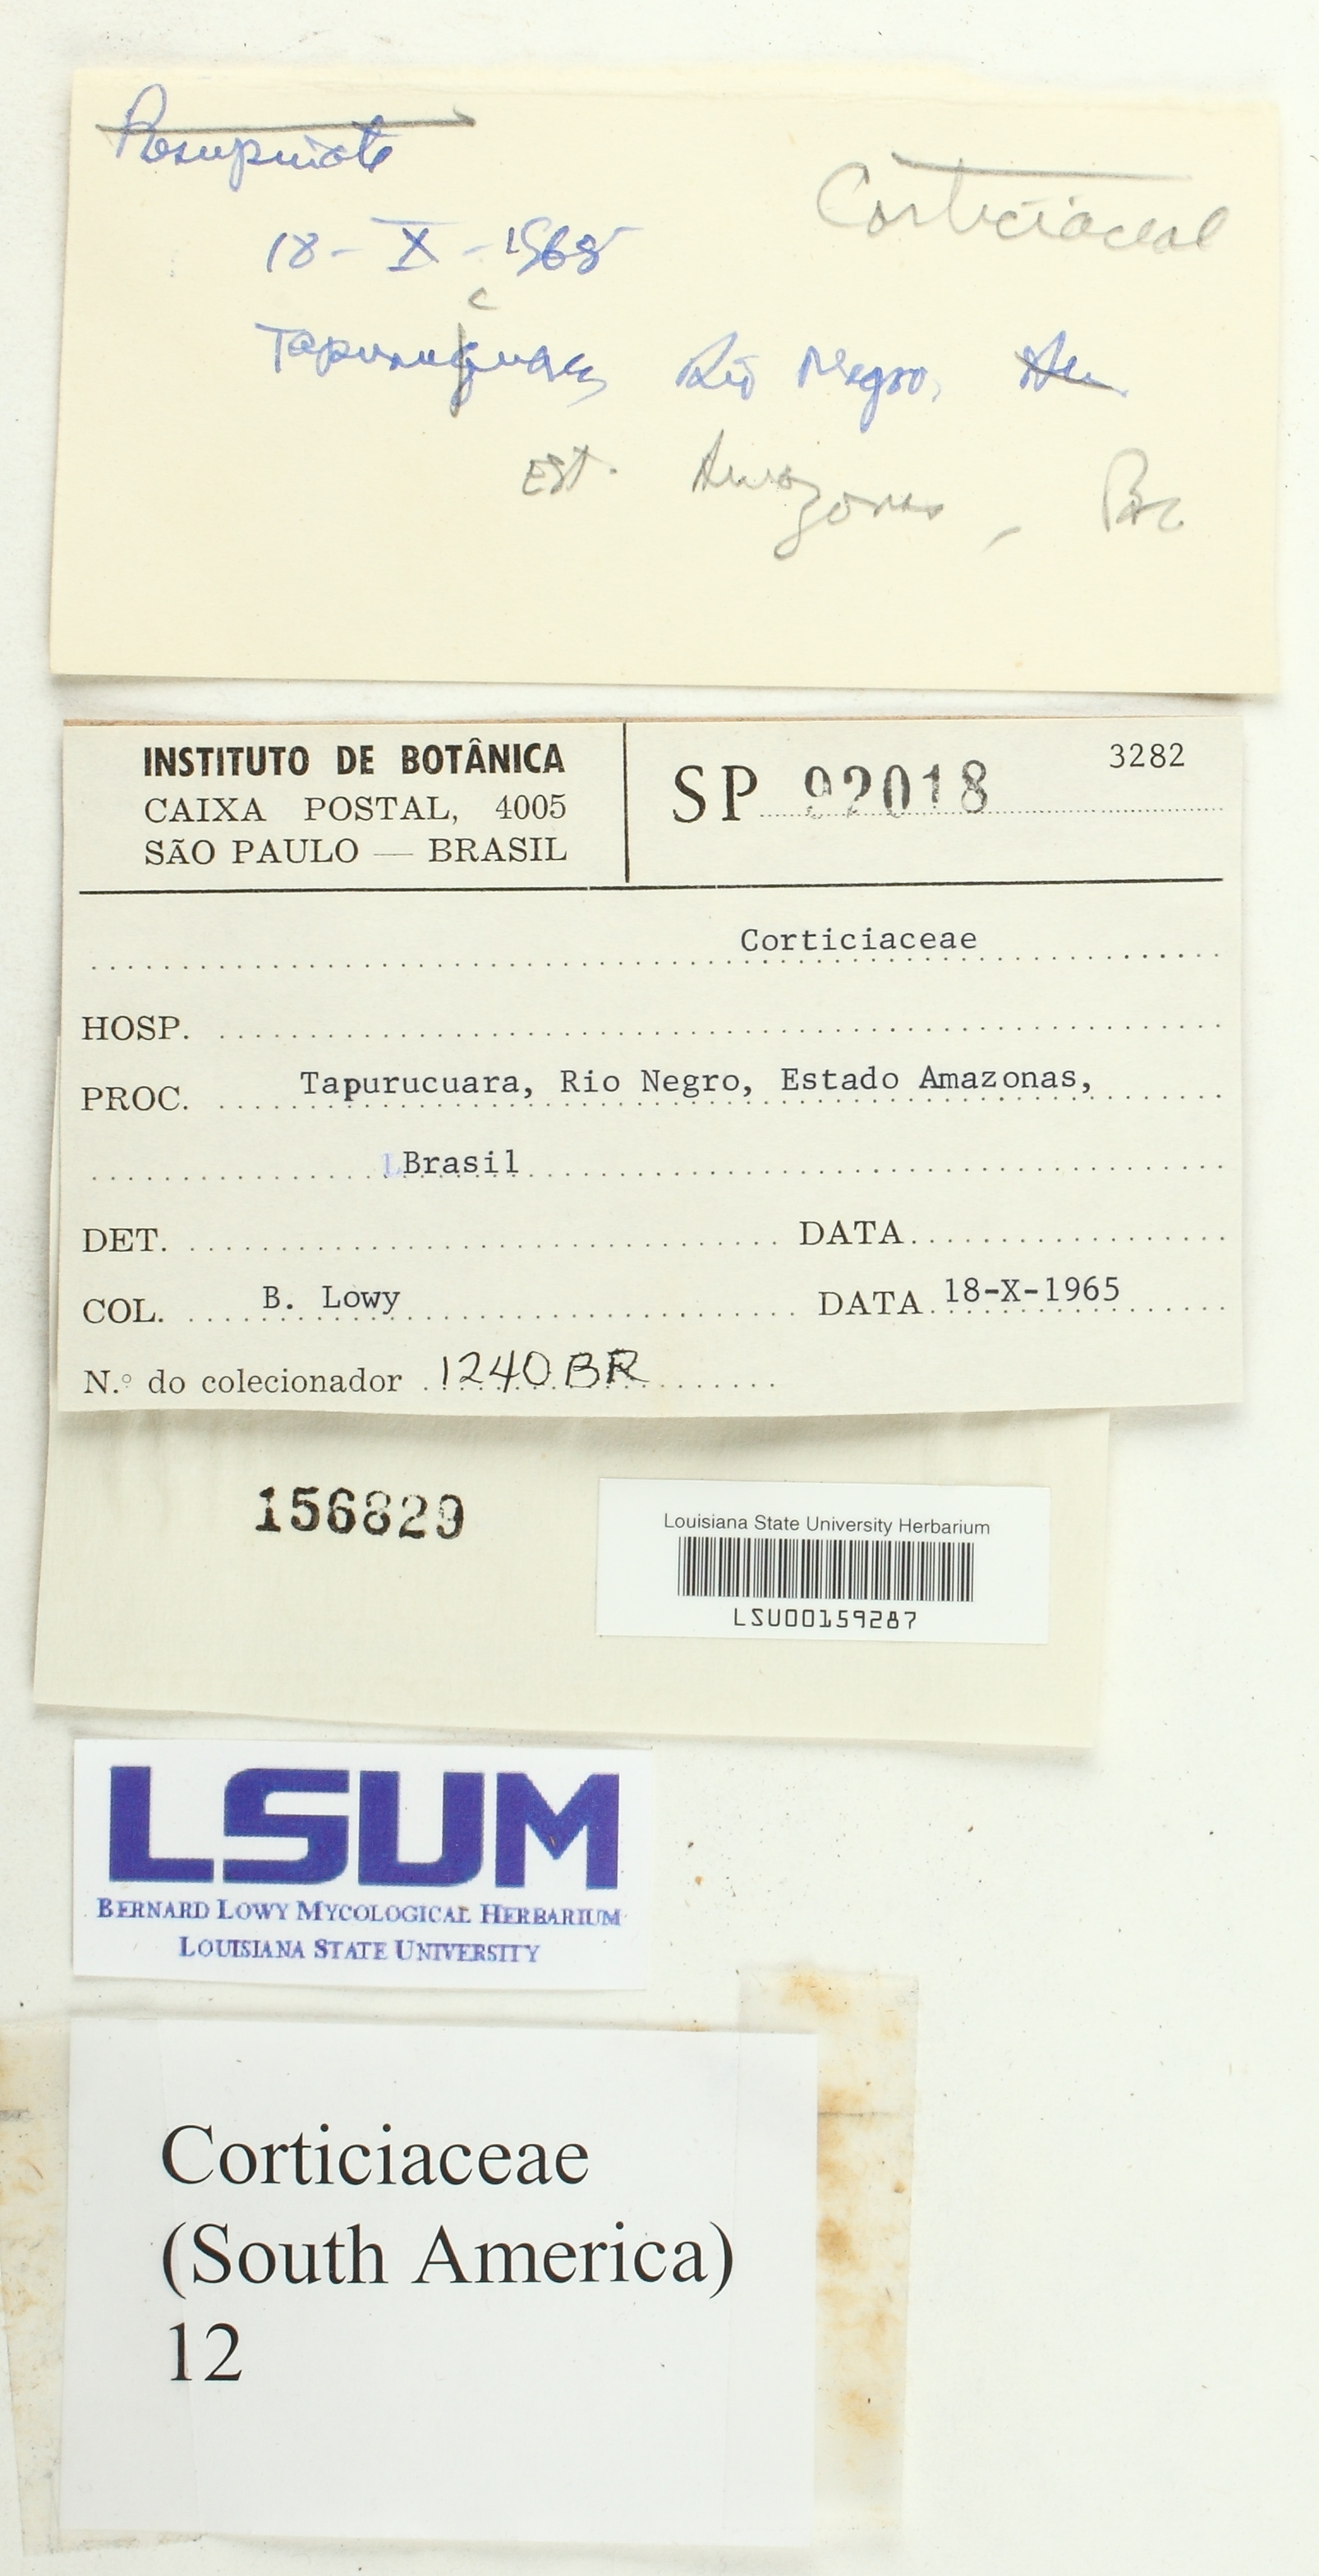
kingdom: Fungi
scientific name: Fungi
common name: Fungi
